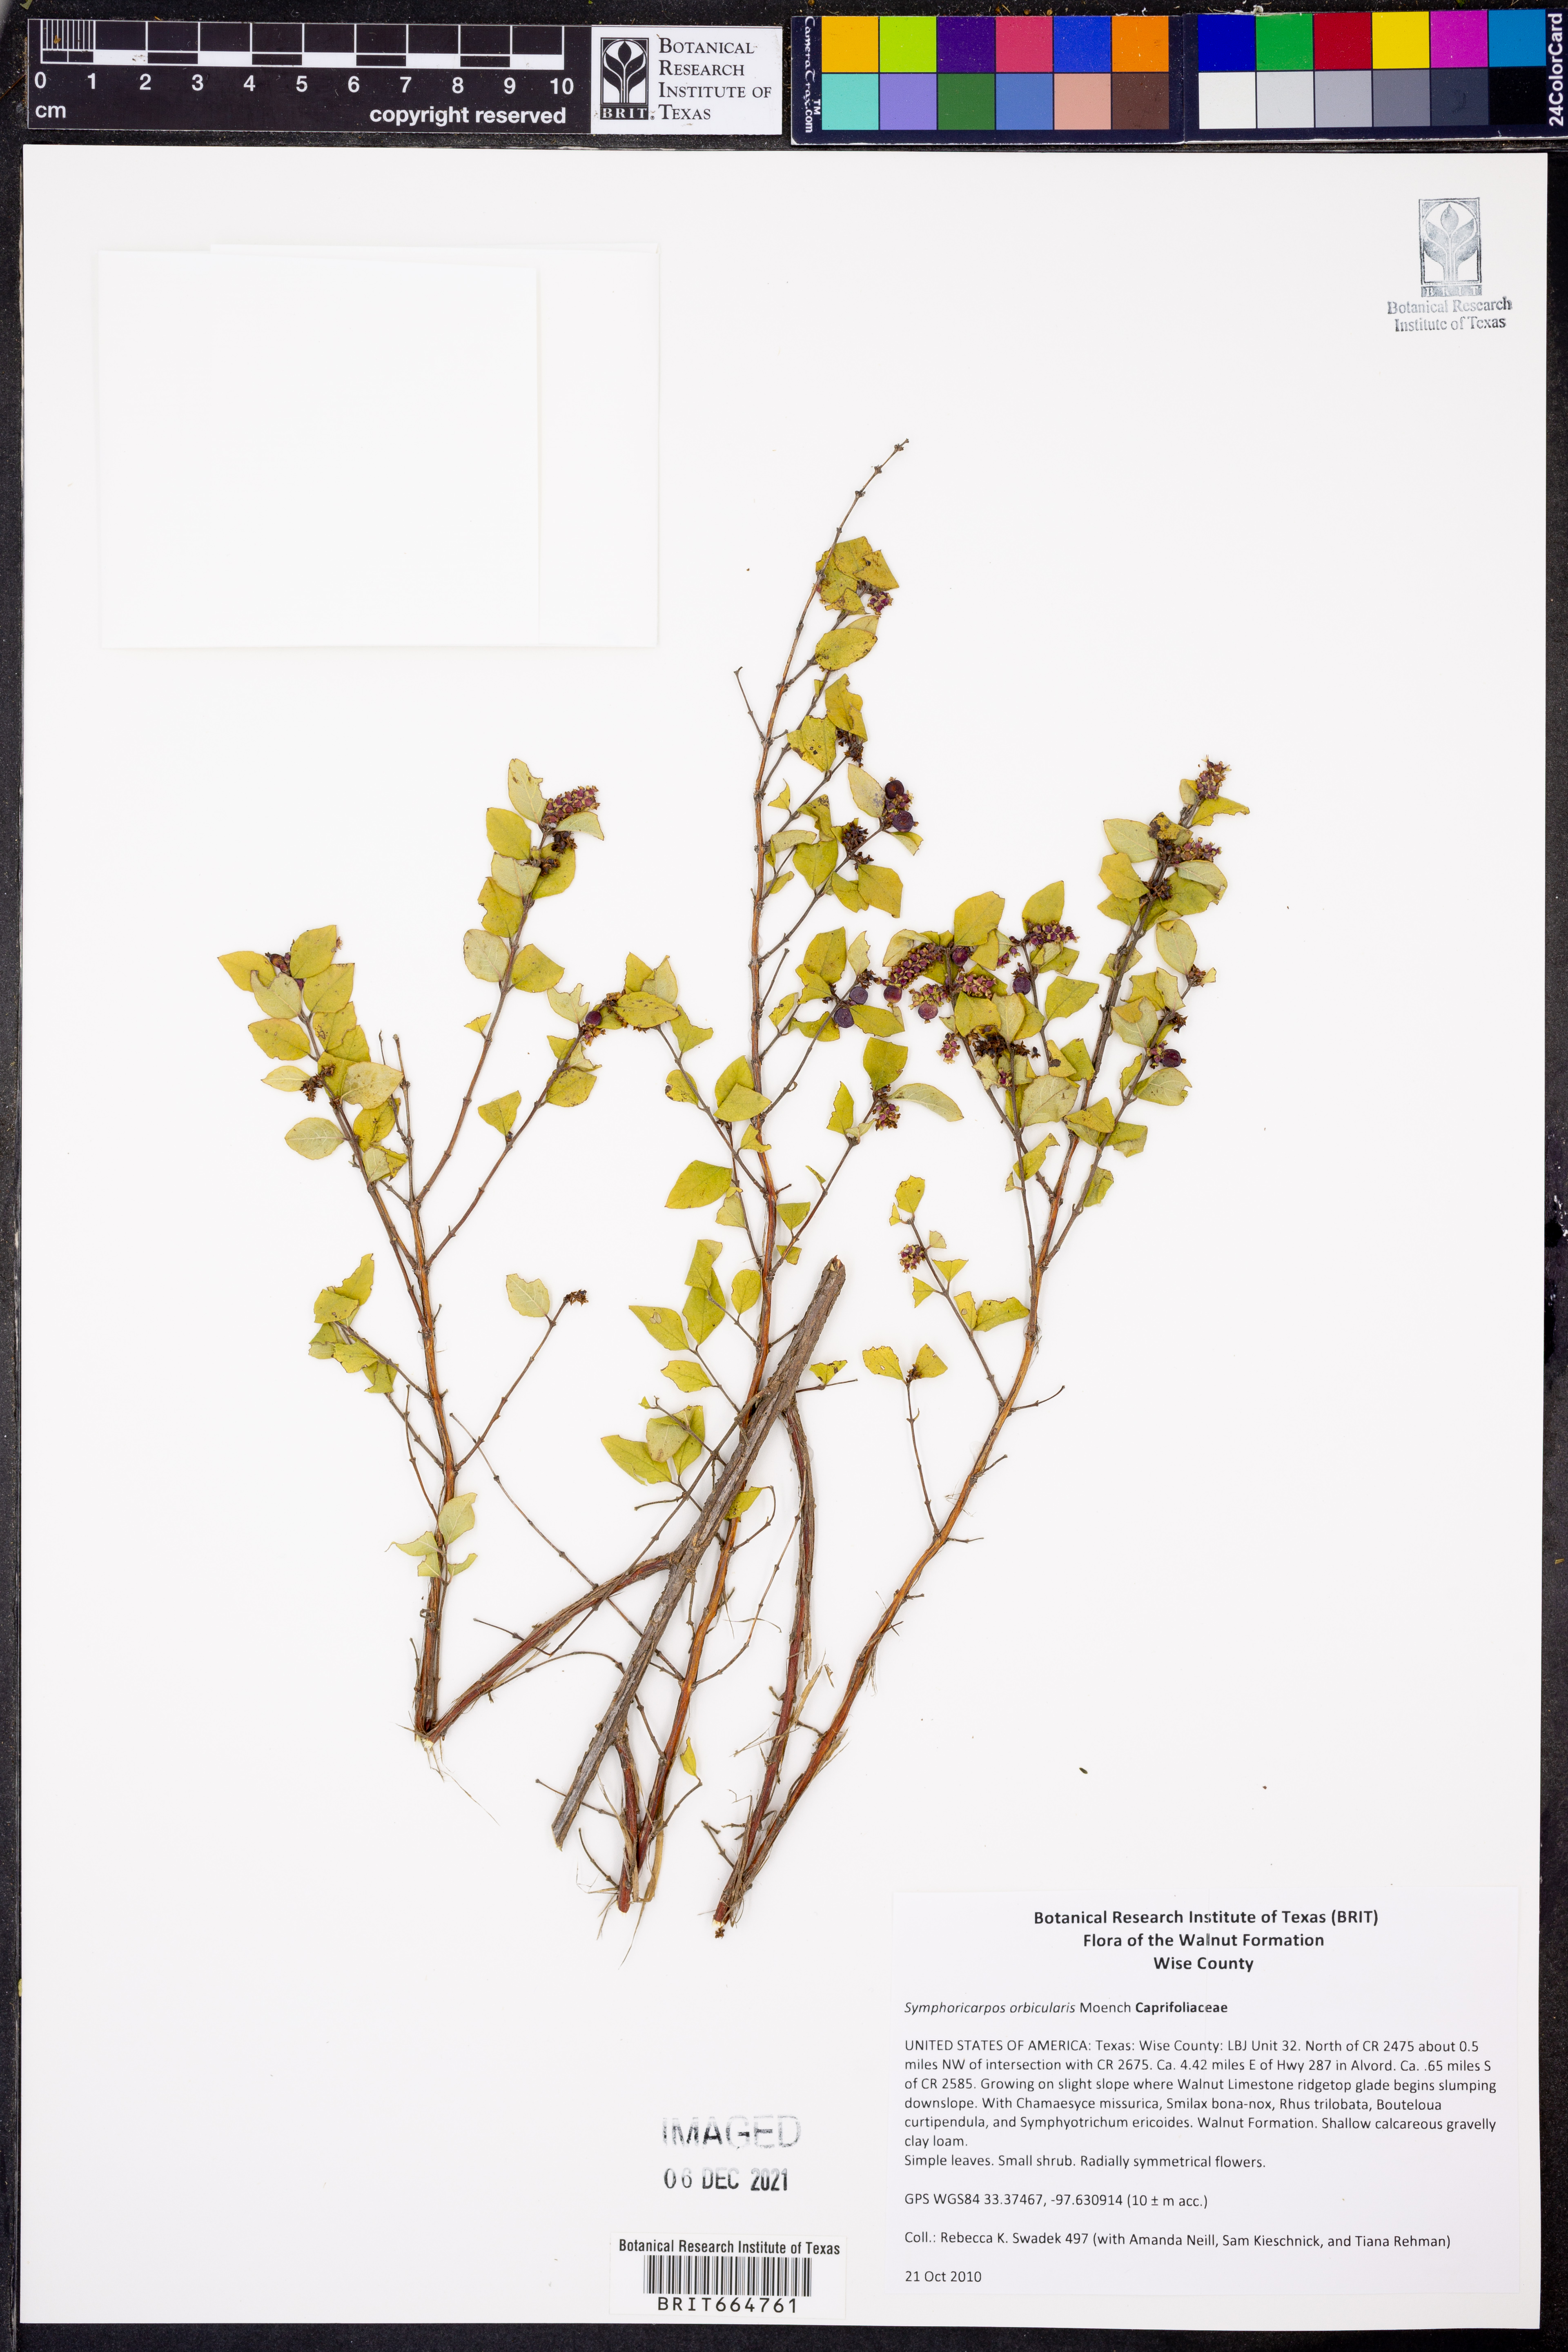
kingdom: Plantae
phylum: Tracheophyta
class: Magnoliopsida
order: Dipsacales
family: Caprifoliaceae
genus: Symphoricarpos
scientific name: Symphoricarpos orbicularis
